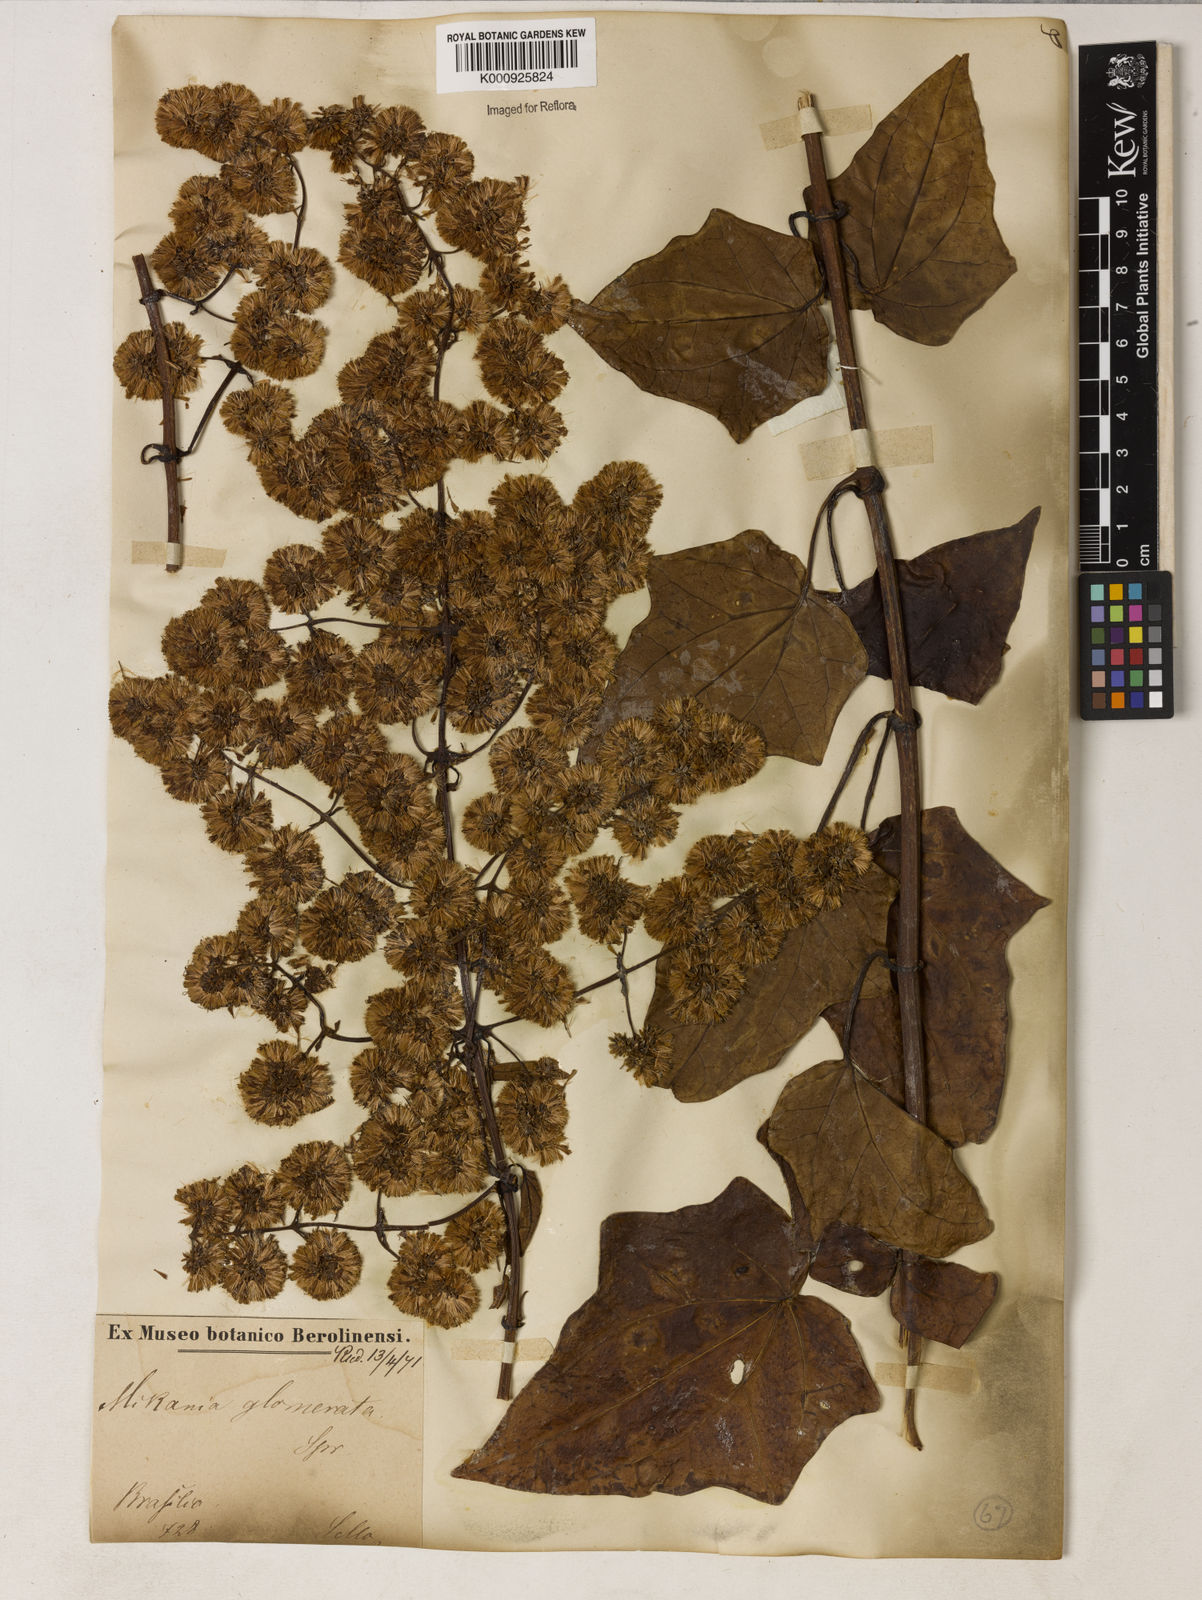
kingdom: Plantae
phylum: Tracheophyta
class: Magnoliopsida
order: Asterales
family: Asteraceae
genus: Mikania
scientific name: Mikania glomerata
